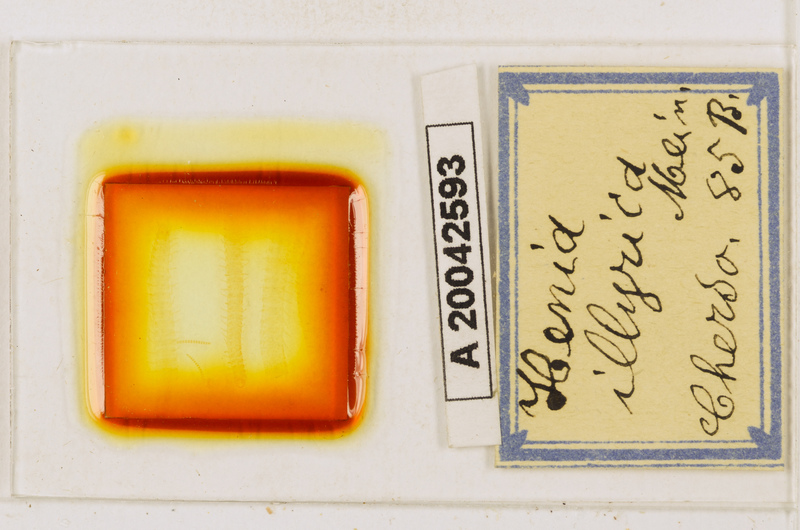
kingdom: Animalia
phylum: Arthropoda
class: Chilopoda
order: Geophilomorpha
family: Dignathodontidae
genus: Henia
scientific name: Henia illyrica
